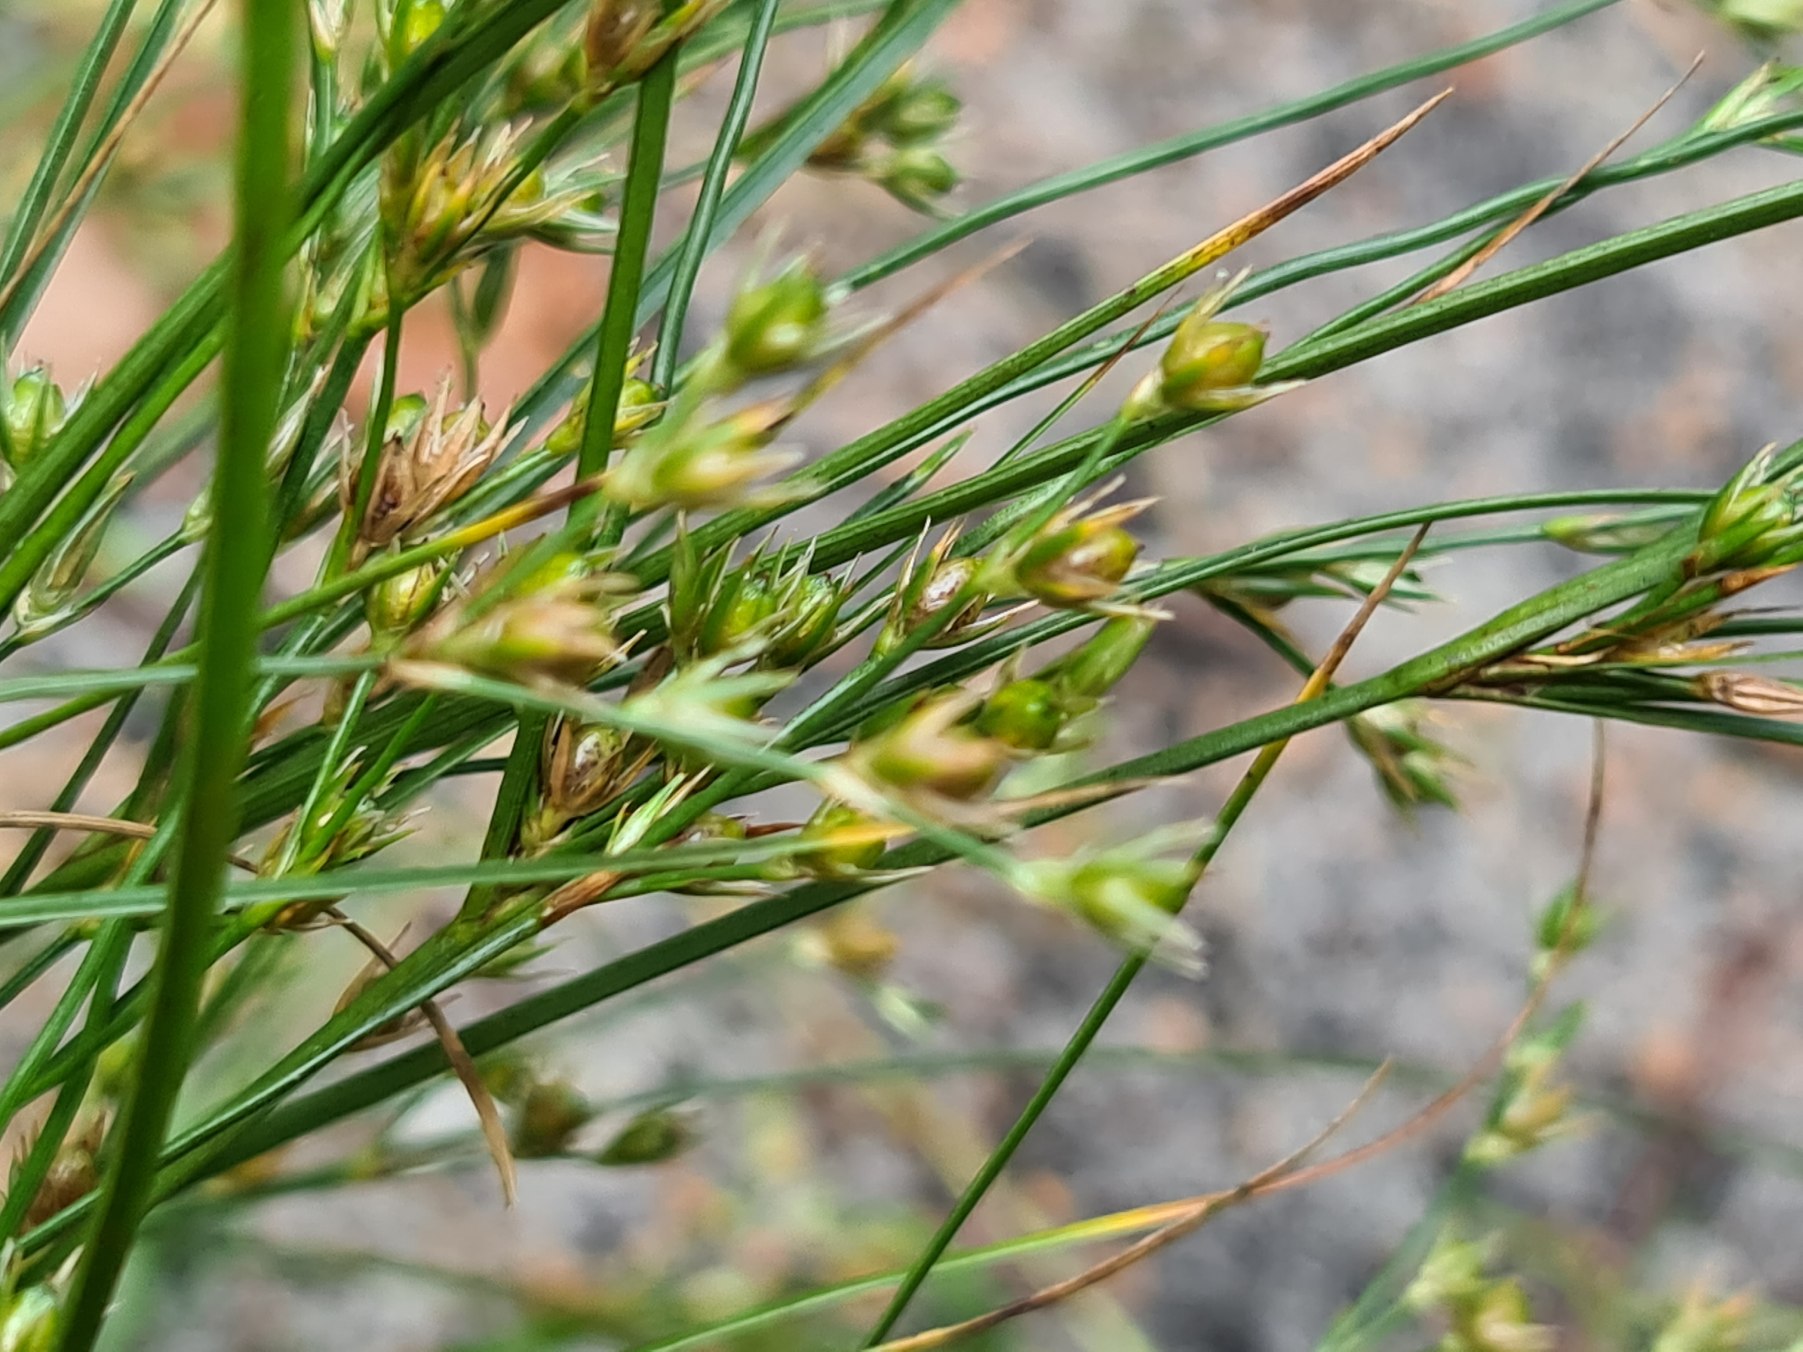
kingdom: Plantae
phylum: Tracheophyta
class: Liliopsida
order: Poales
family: Juncaceae
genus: Juncus
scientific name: Juncus tenuis
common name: Tue-siv
